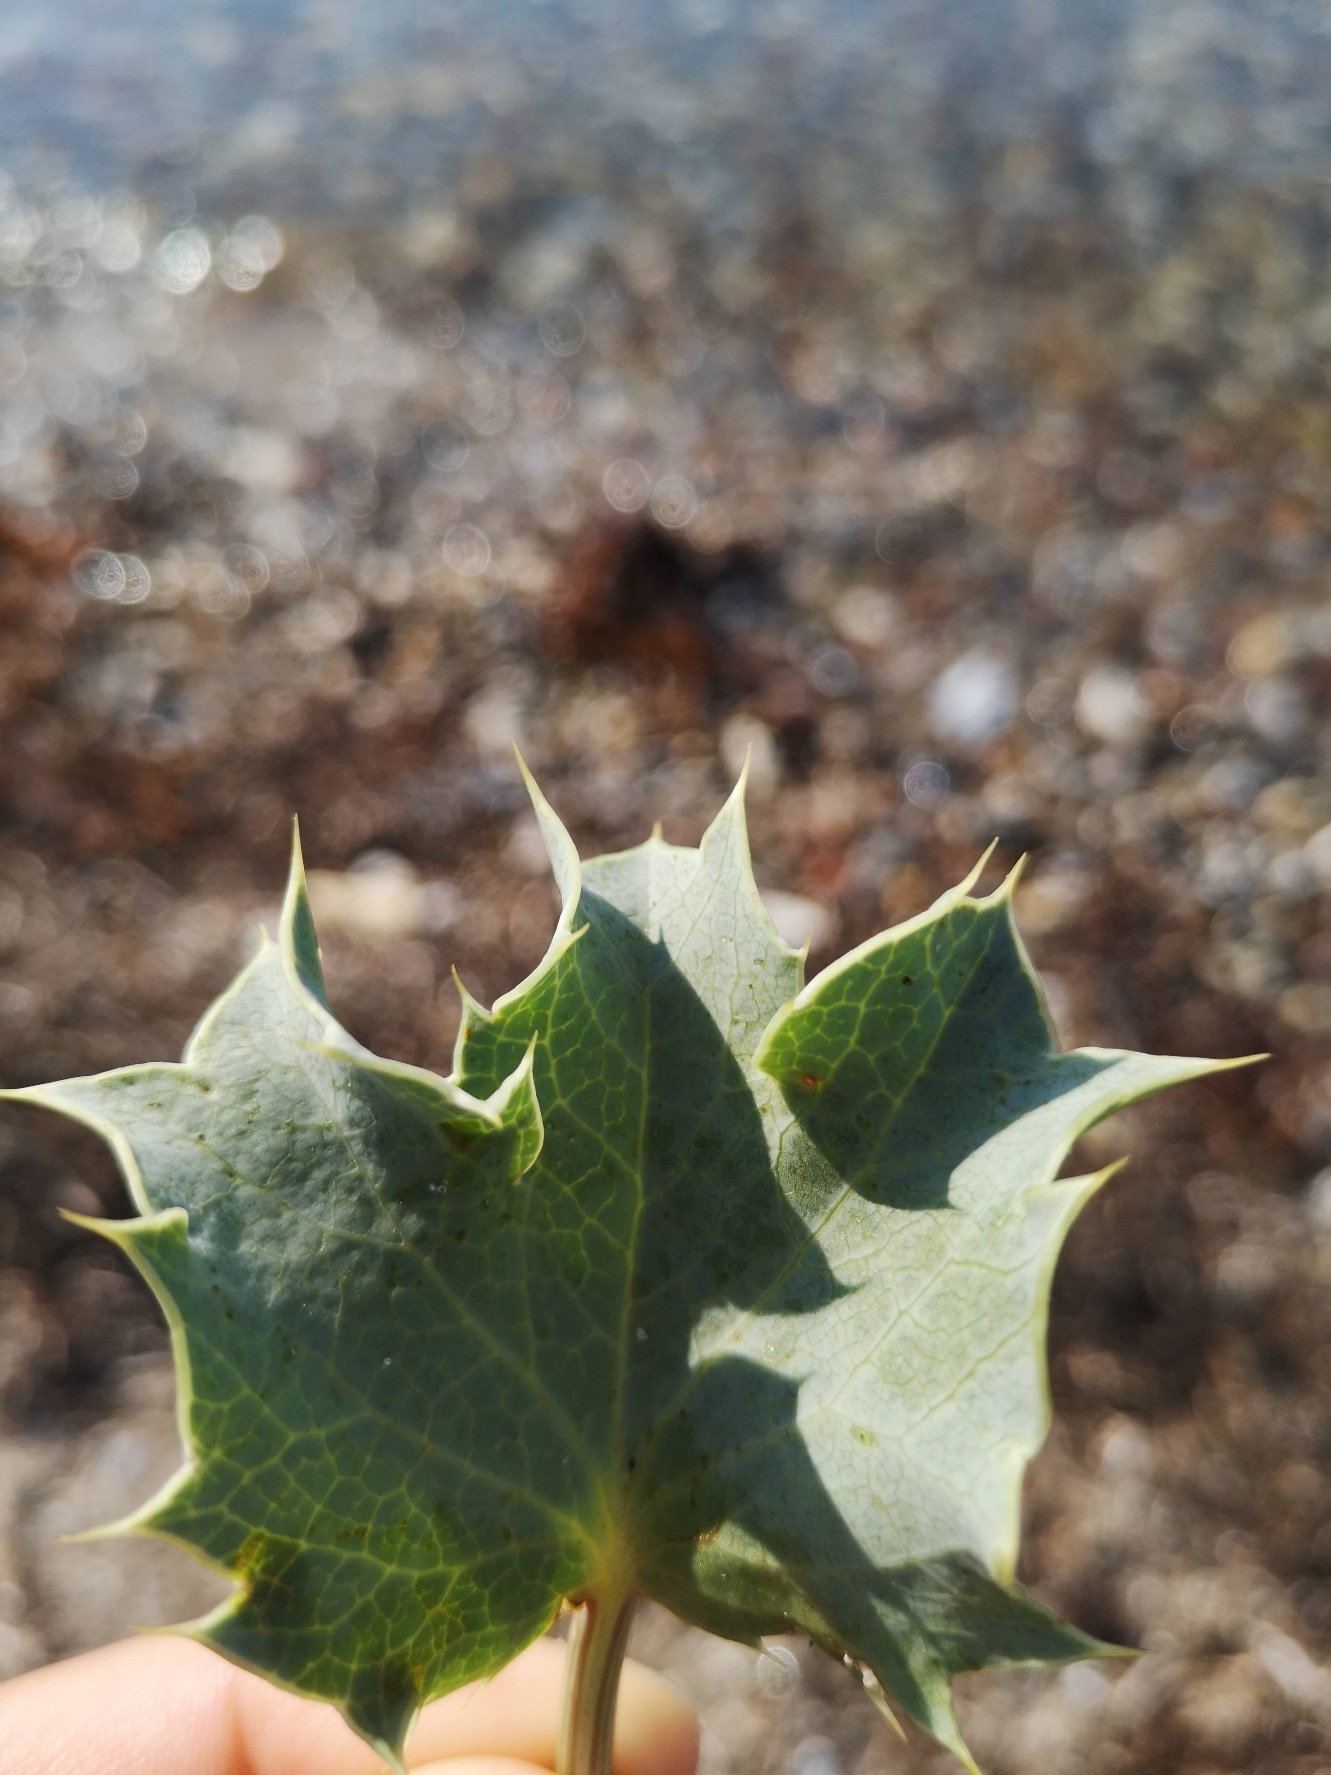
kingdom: Plantae
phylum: Tracheophyta
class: Magnoliopsida
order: Apiales
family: Apiaceae
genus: Eryngium
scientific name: Eryngium maritimum
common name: Strand-mandstro
